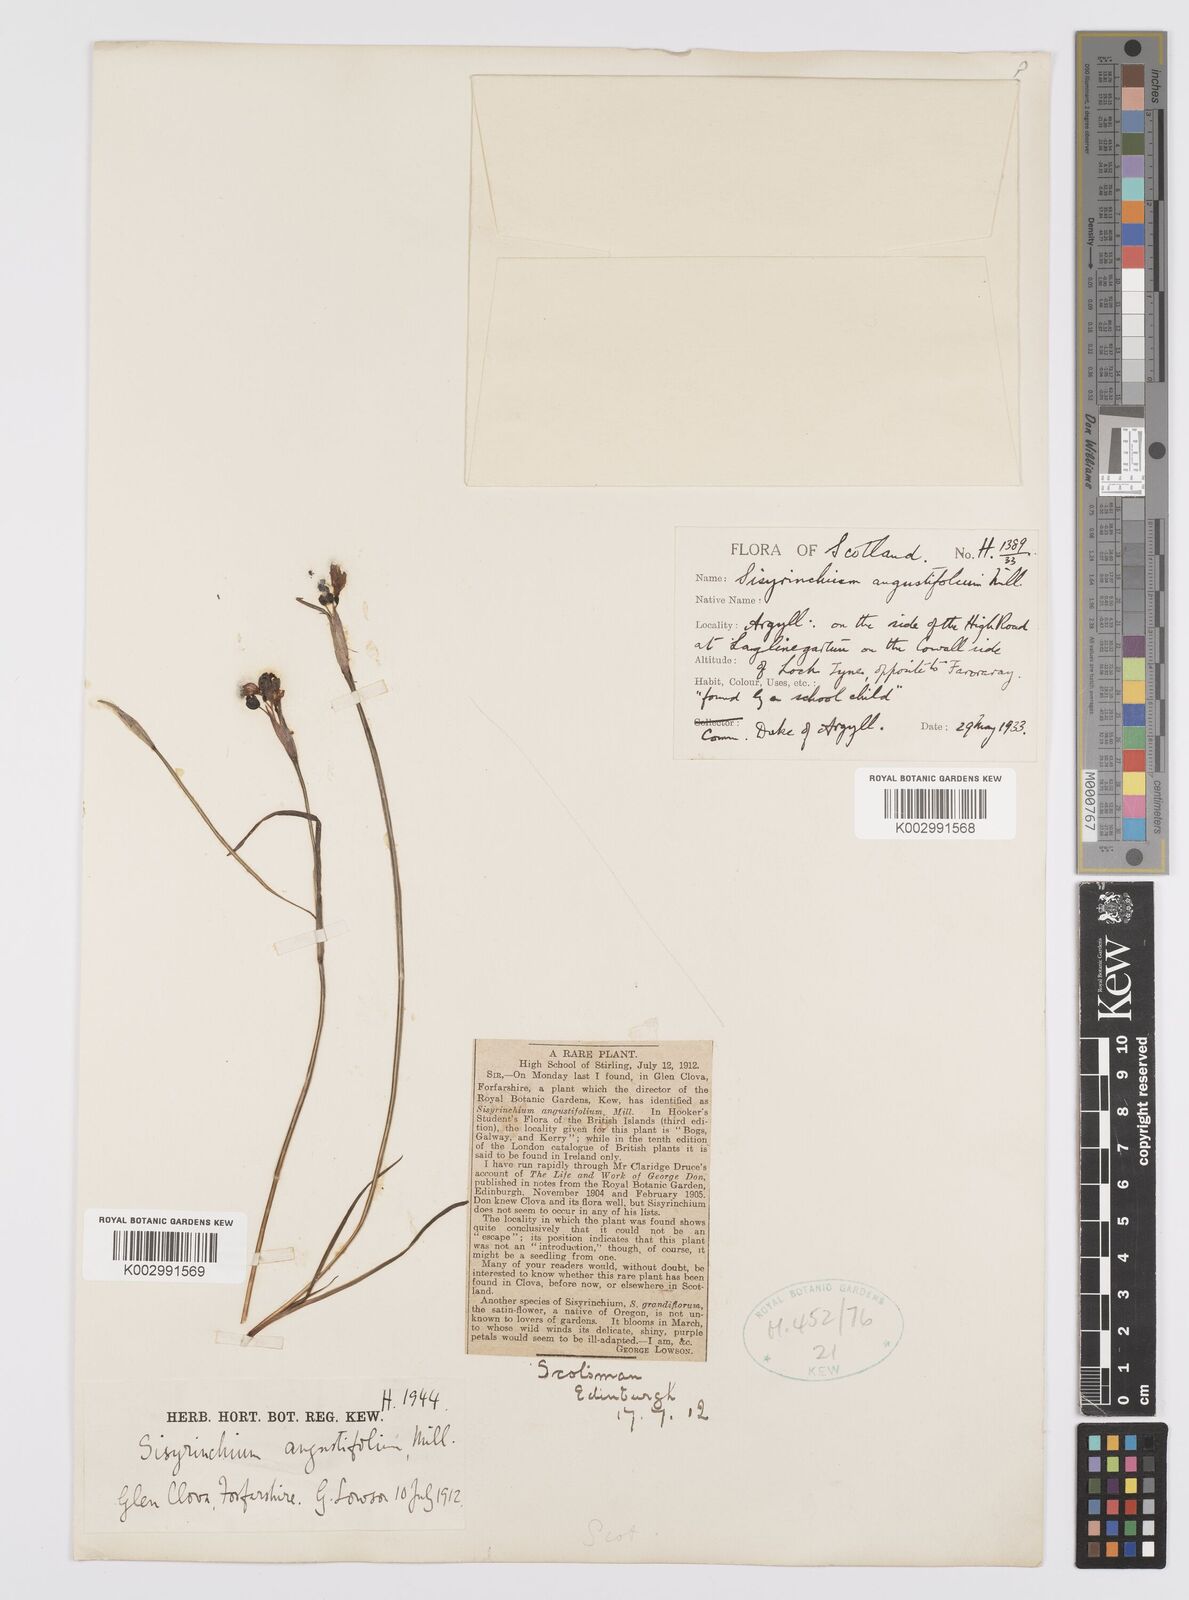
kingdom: Plantae
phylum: Tracheophyta
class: Liliopsida
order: Asparagales
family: Iridaceae
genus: Sisyrinchium
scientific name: Sisyrinchium angustifolium
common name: Narrow-leaf blue-eyed-grass
